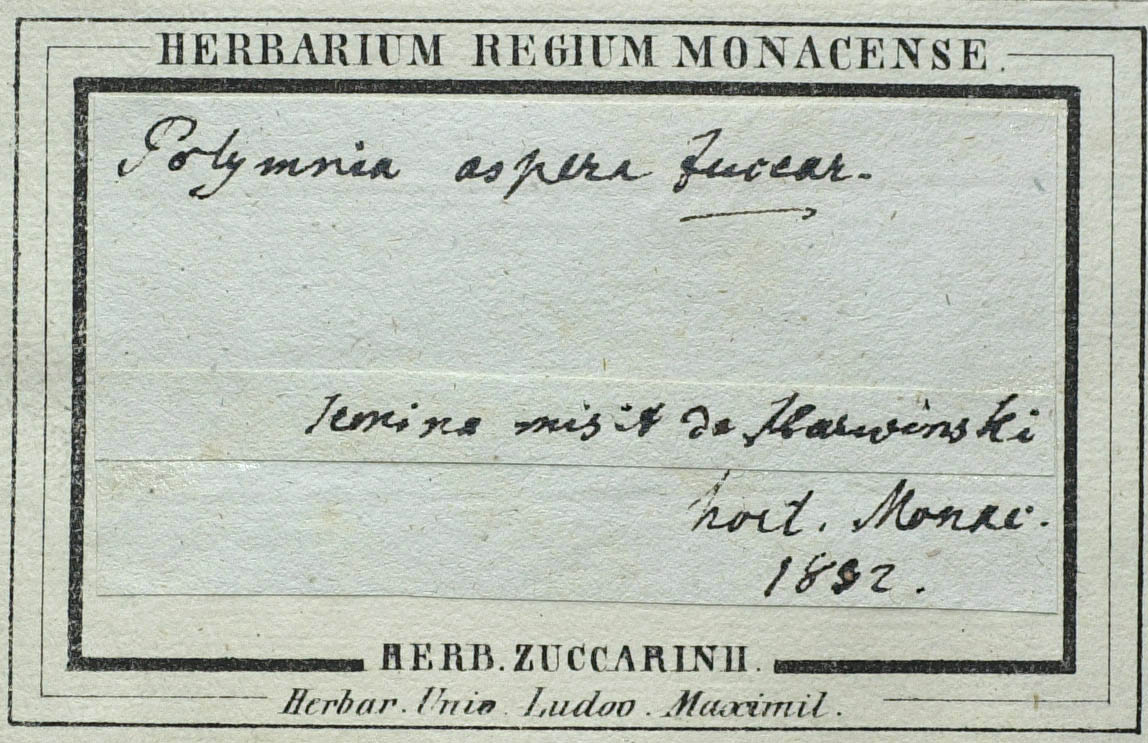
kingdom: Plantae
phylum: Tracheophyta
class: Magnoliopsida
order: Asterales
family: Asteraceae
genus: Polymnia
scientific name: Polymnia aspera
